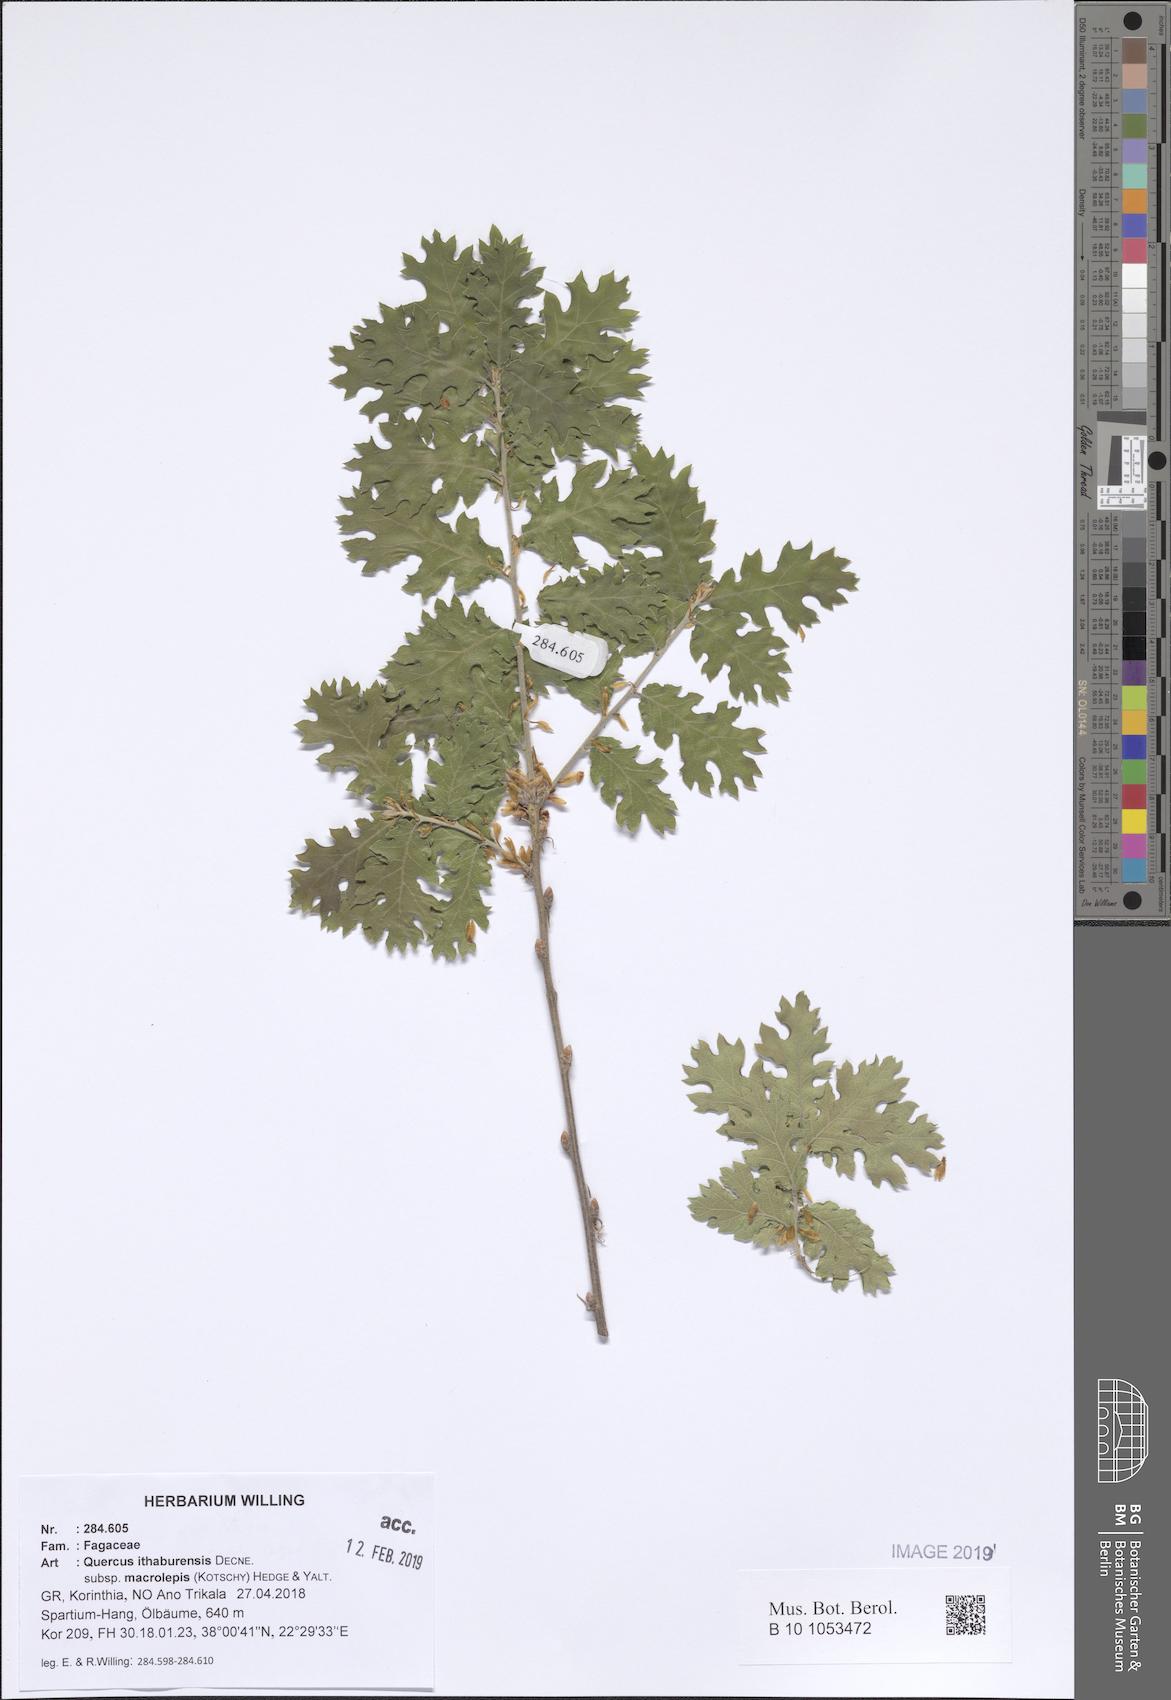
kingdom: Plantae
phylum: Tracheophyta
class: Magnoliopsida
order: Fagales
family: Fagaceae
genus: Quercus
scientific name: Quercus ithaburensis
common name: Tabor oak
